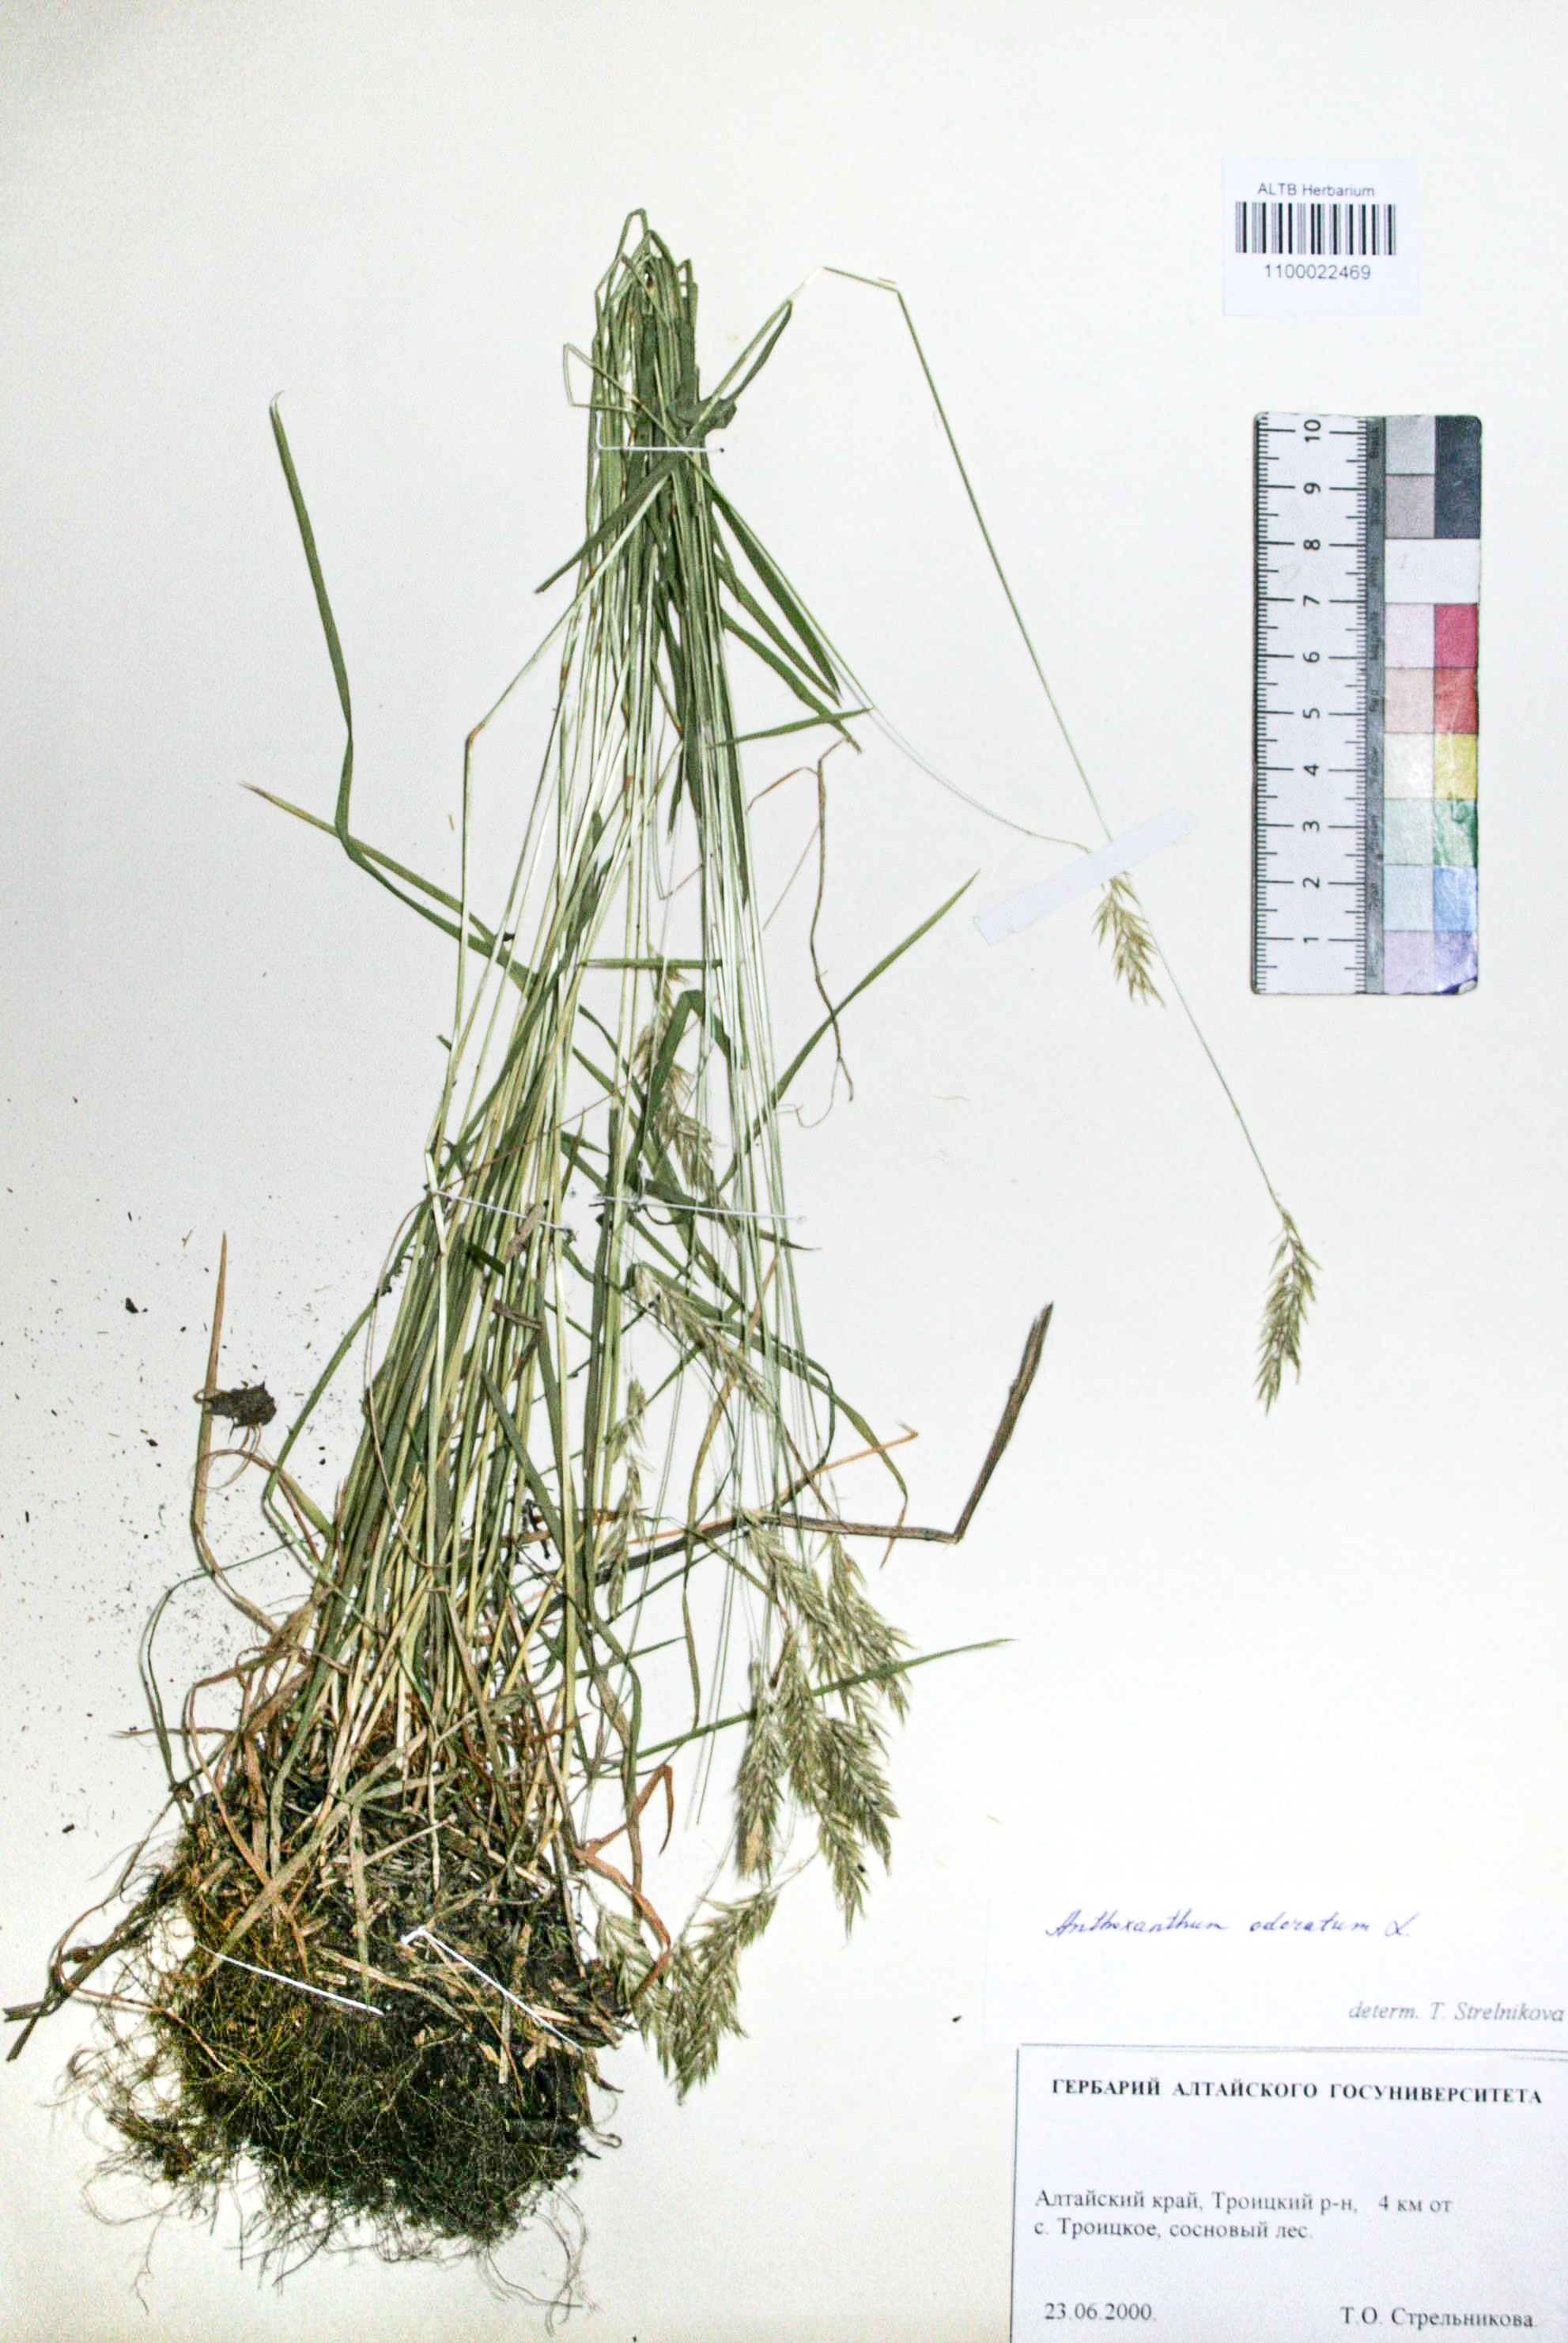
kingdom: Plantae
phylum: Tracheophyta
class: Liliopsida
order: Poales
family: Poaceae
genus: Anthoxanthum
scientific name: Anthoxanthum odoratum
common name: Sweet vernalgrass
